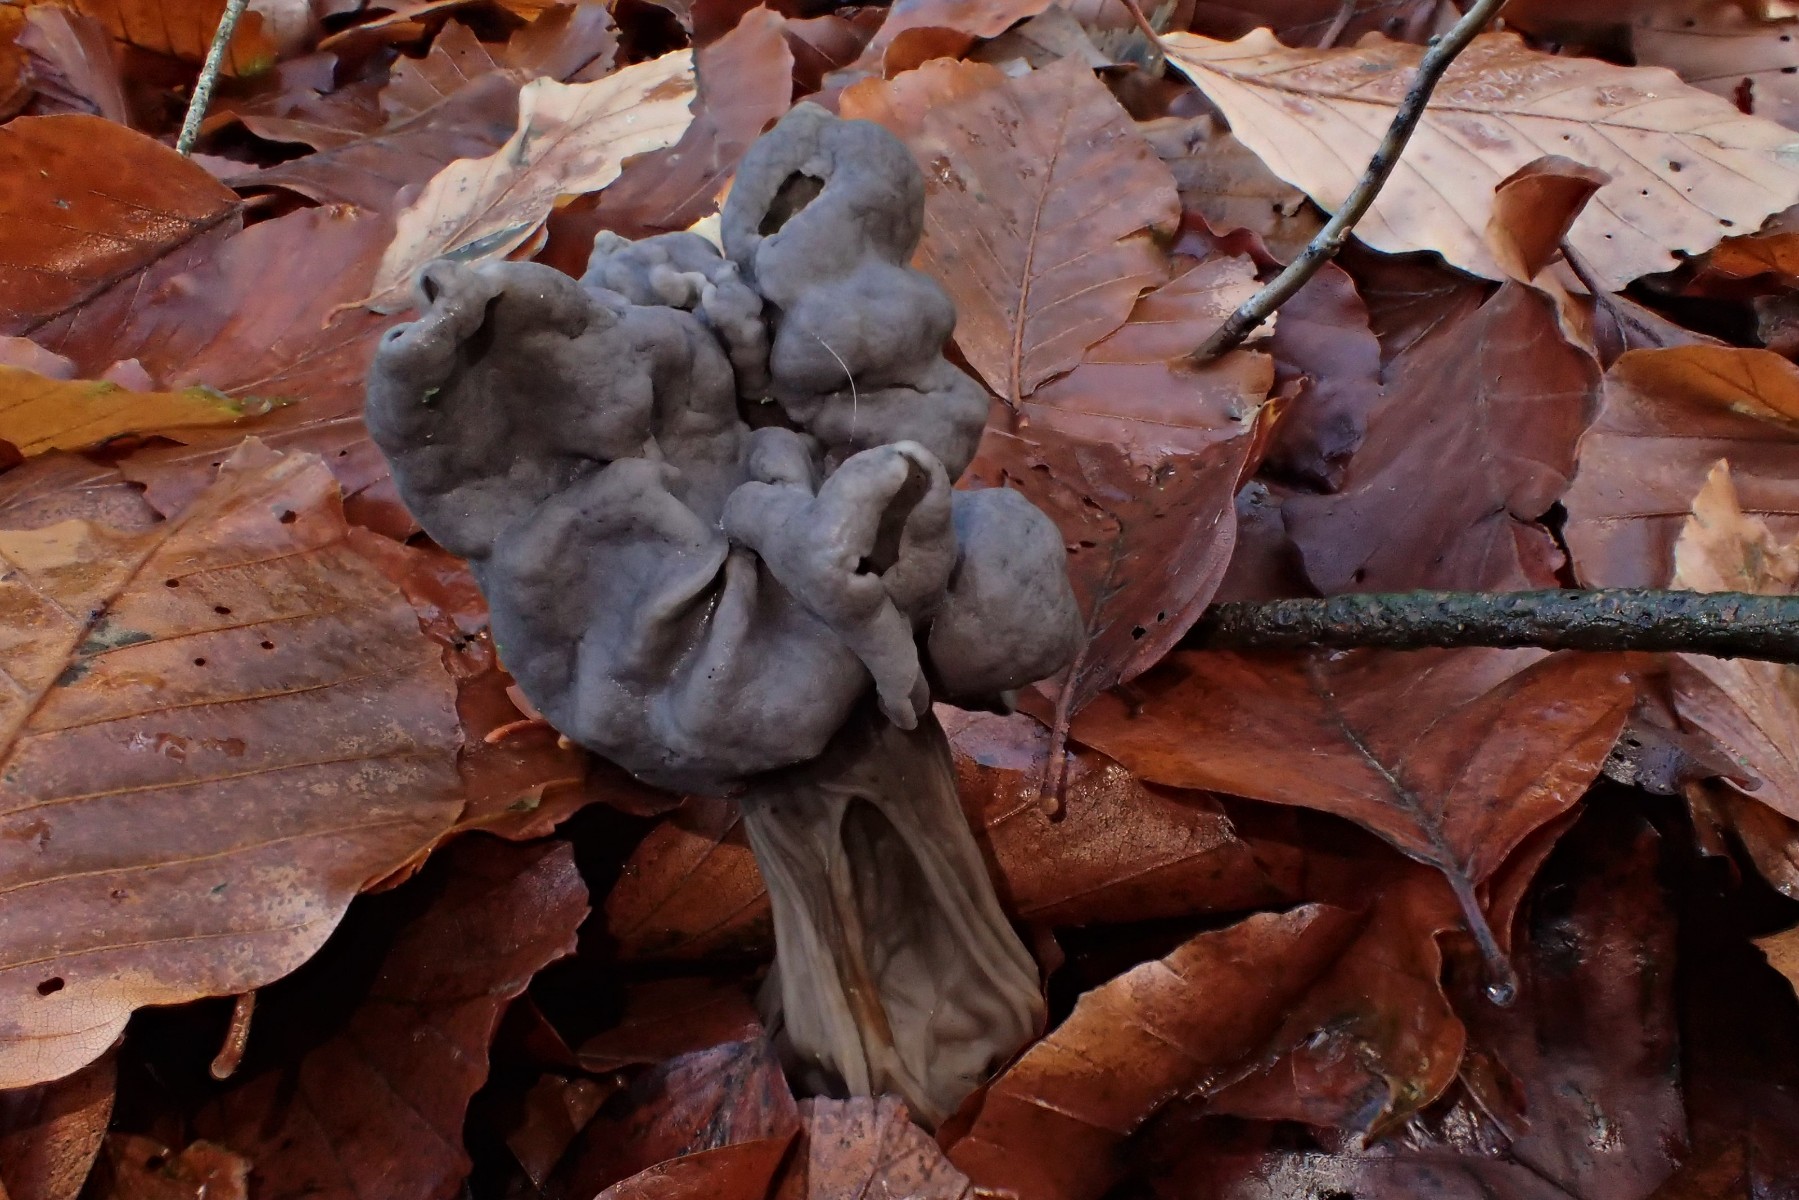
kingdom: Fungi
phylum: Ascomycota
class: Pezizomycetes
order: Pezizales
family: Helvellaceae
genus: Helvella
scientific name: Helvella lacunosa
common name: grubet foldhat
